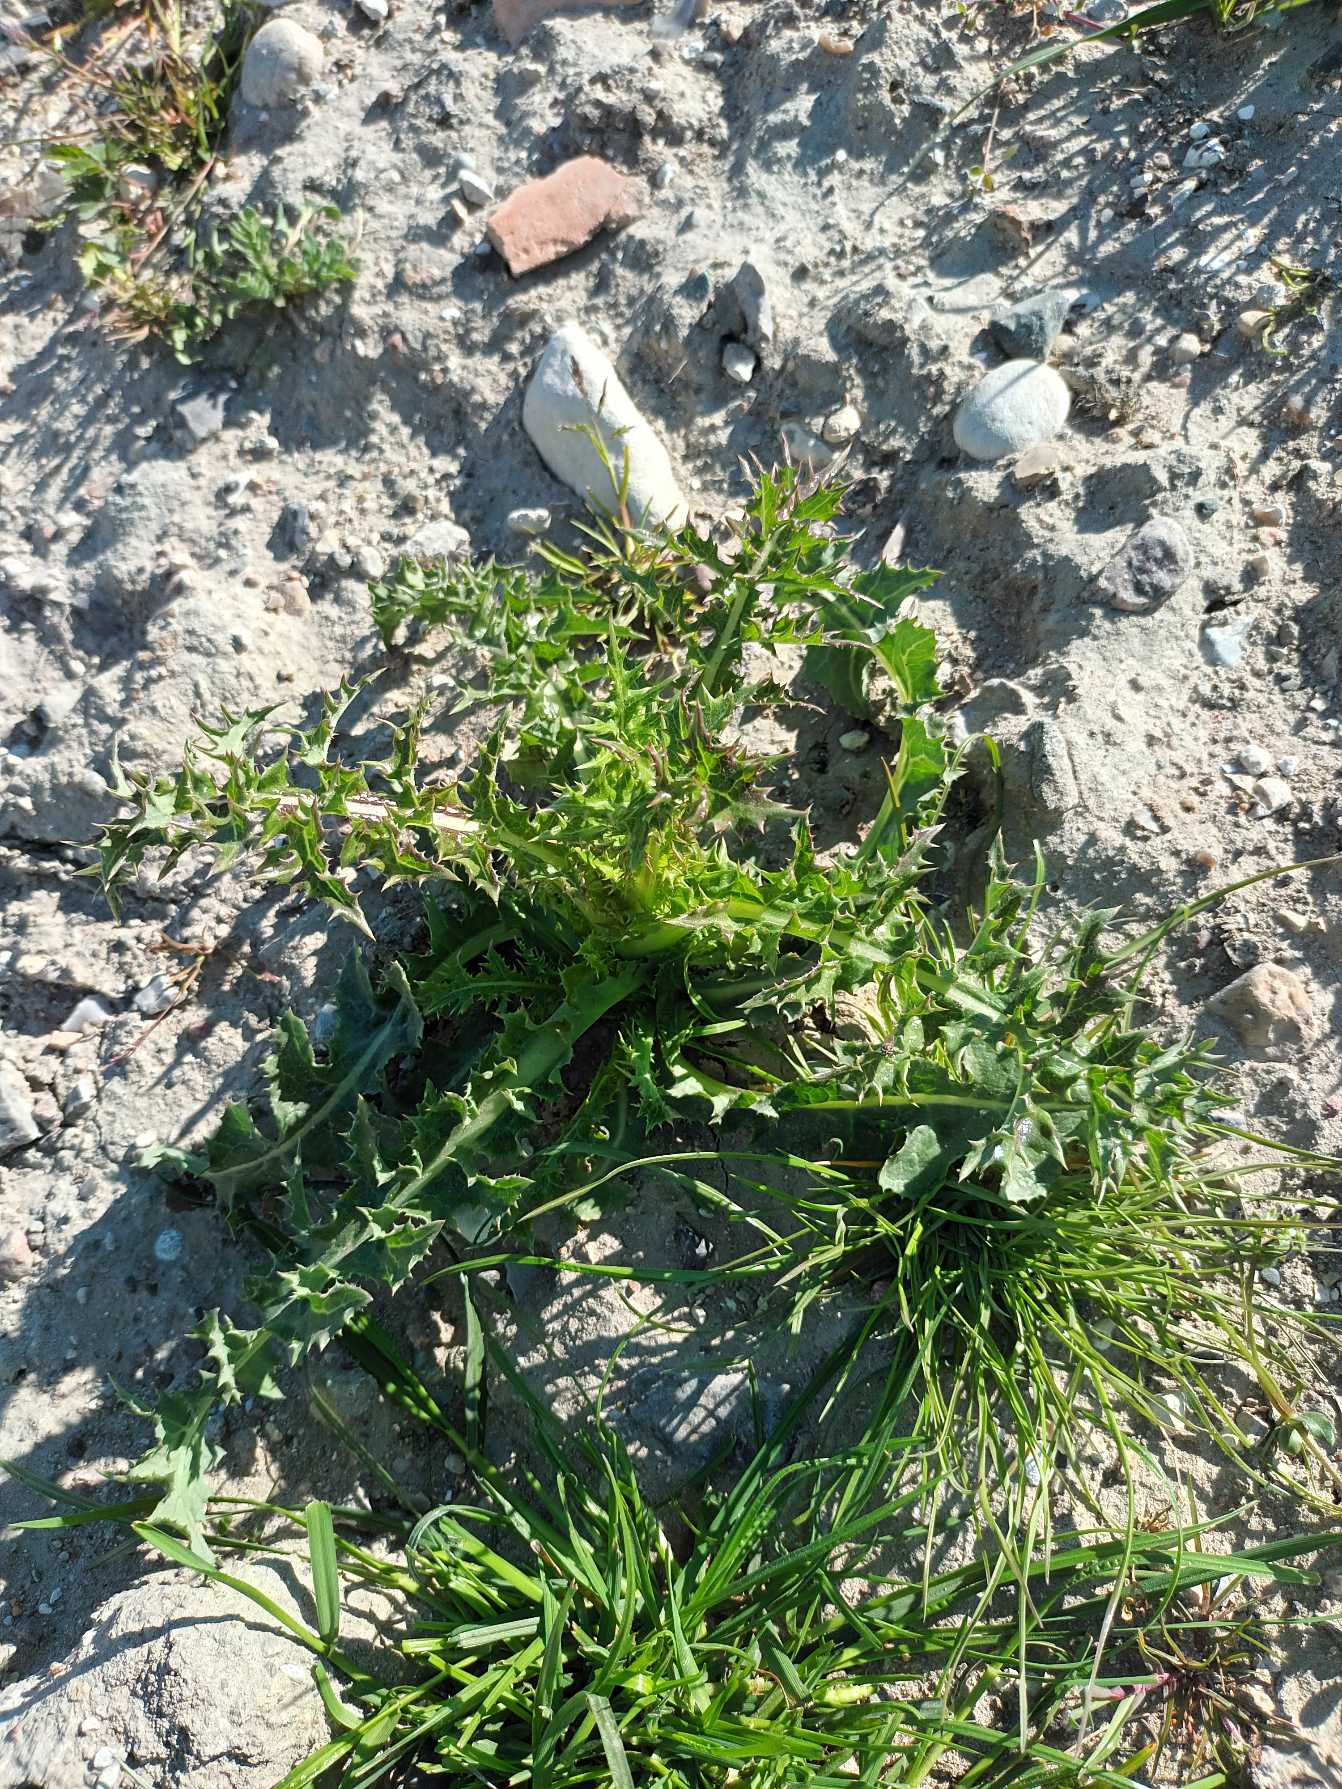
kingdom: Plantae
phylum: Tracheophyta
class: Magnoliopsida
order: Asterales
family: Asteraceae
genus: Sonchus
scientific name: Sonchus asper
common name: Ru svinemælk
